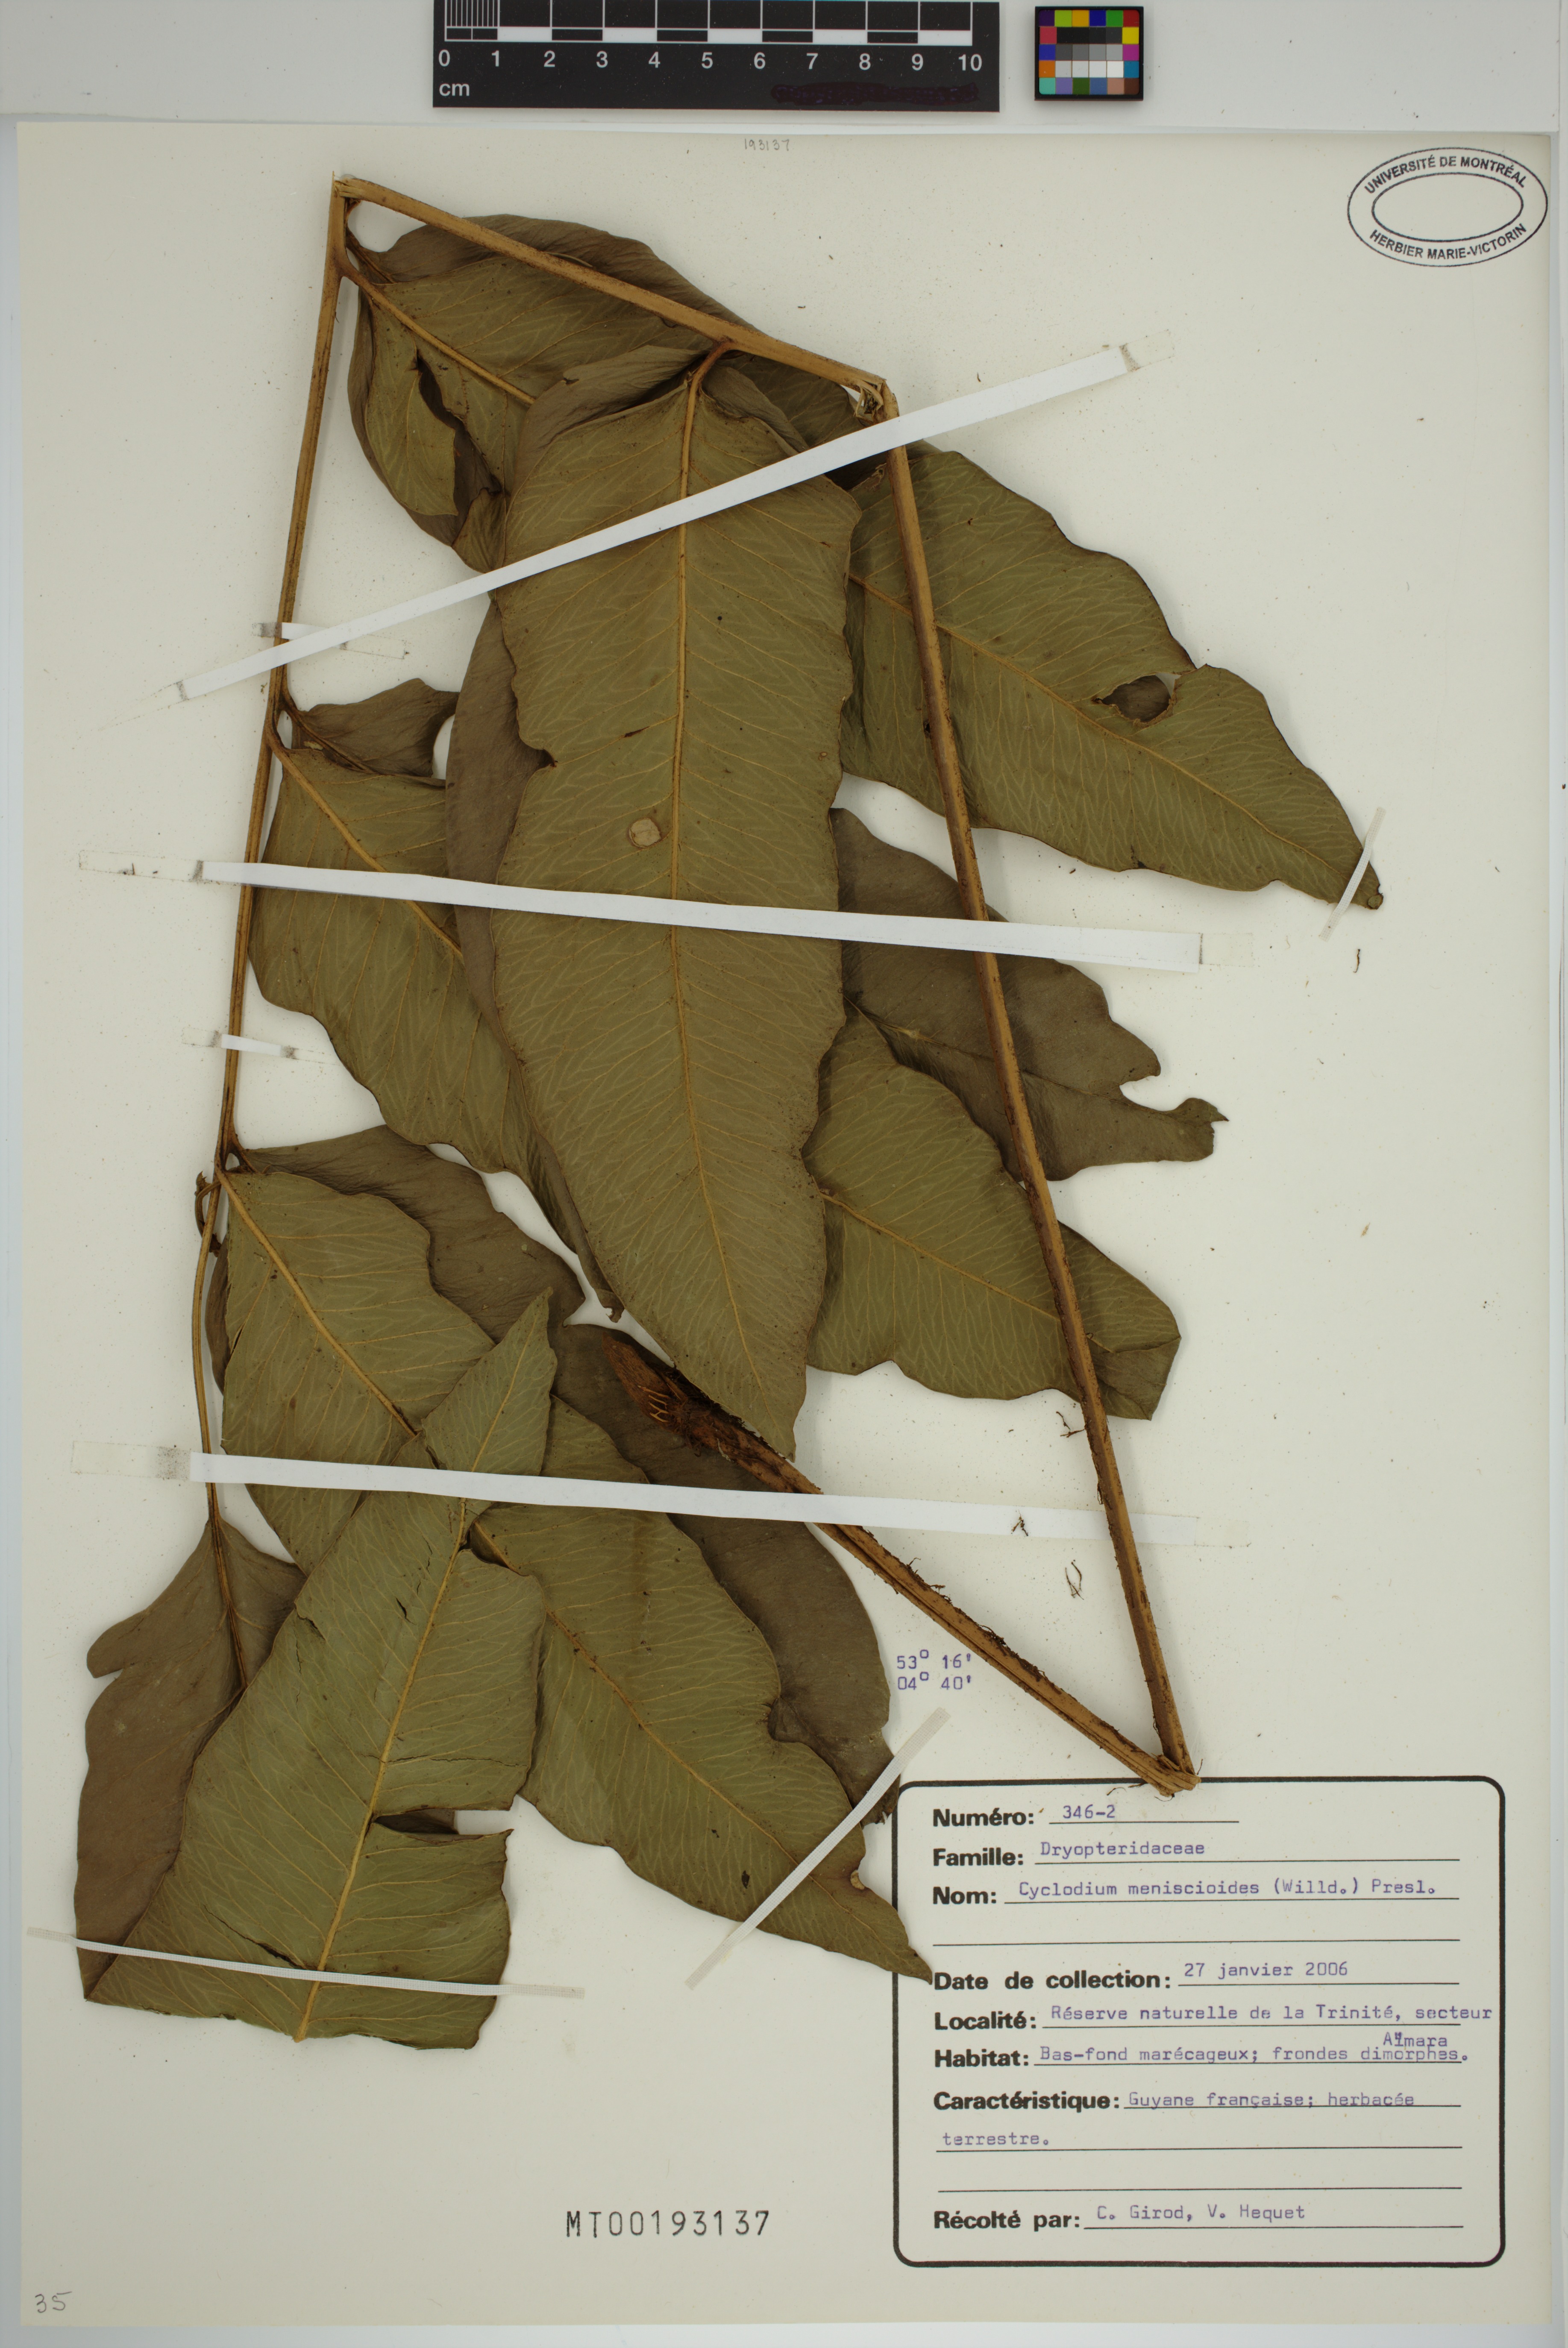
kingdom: Plantae
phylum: Tracheophyta
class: Polypodiopsida
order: Polypodiales
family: Dryopteridaceae
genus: Cyclodium
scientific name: Cyclodium meniscioides
